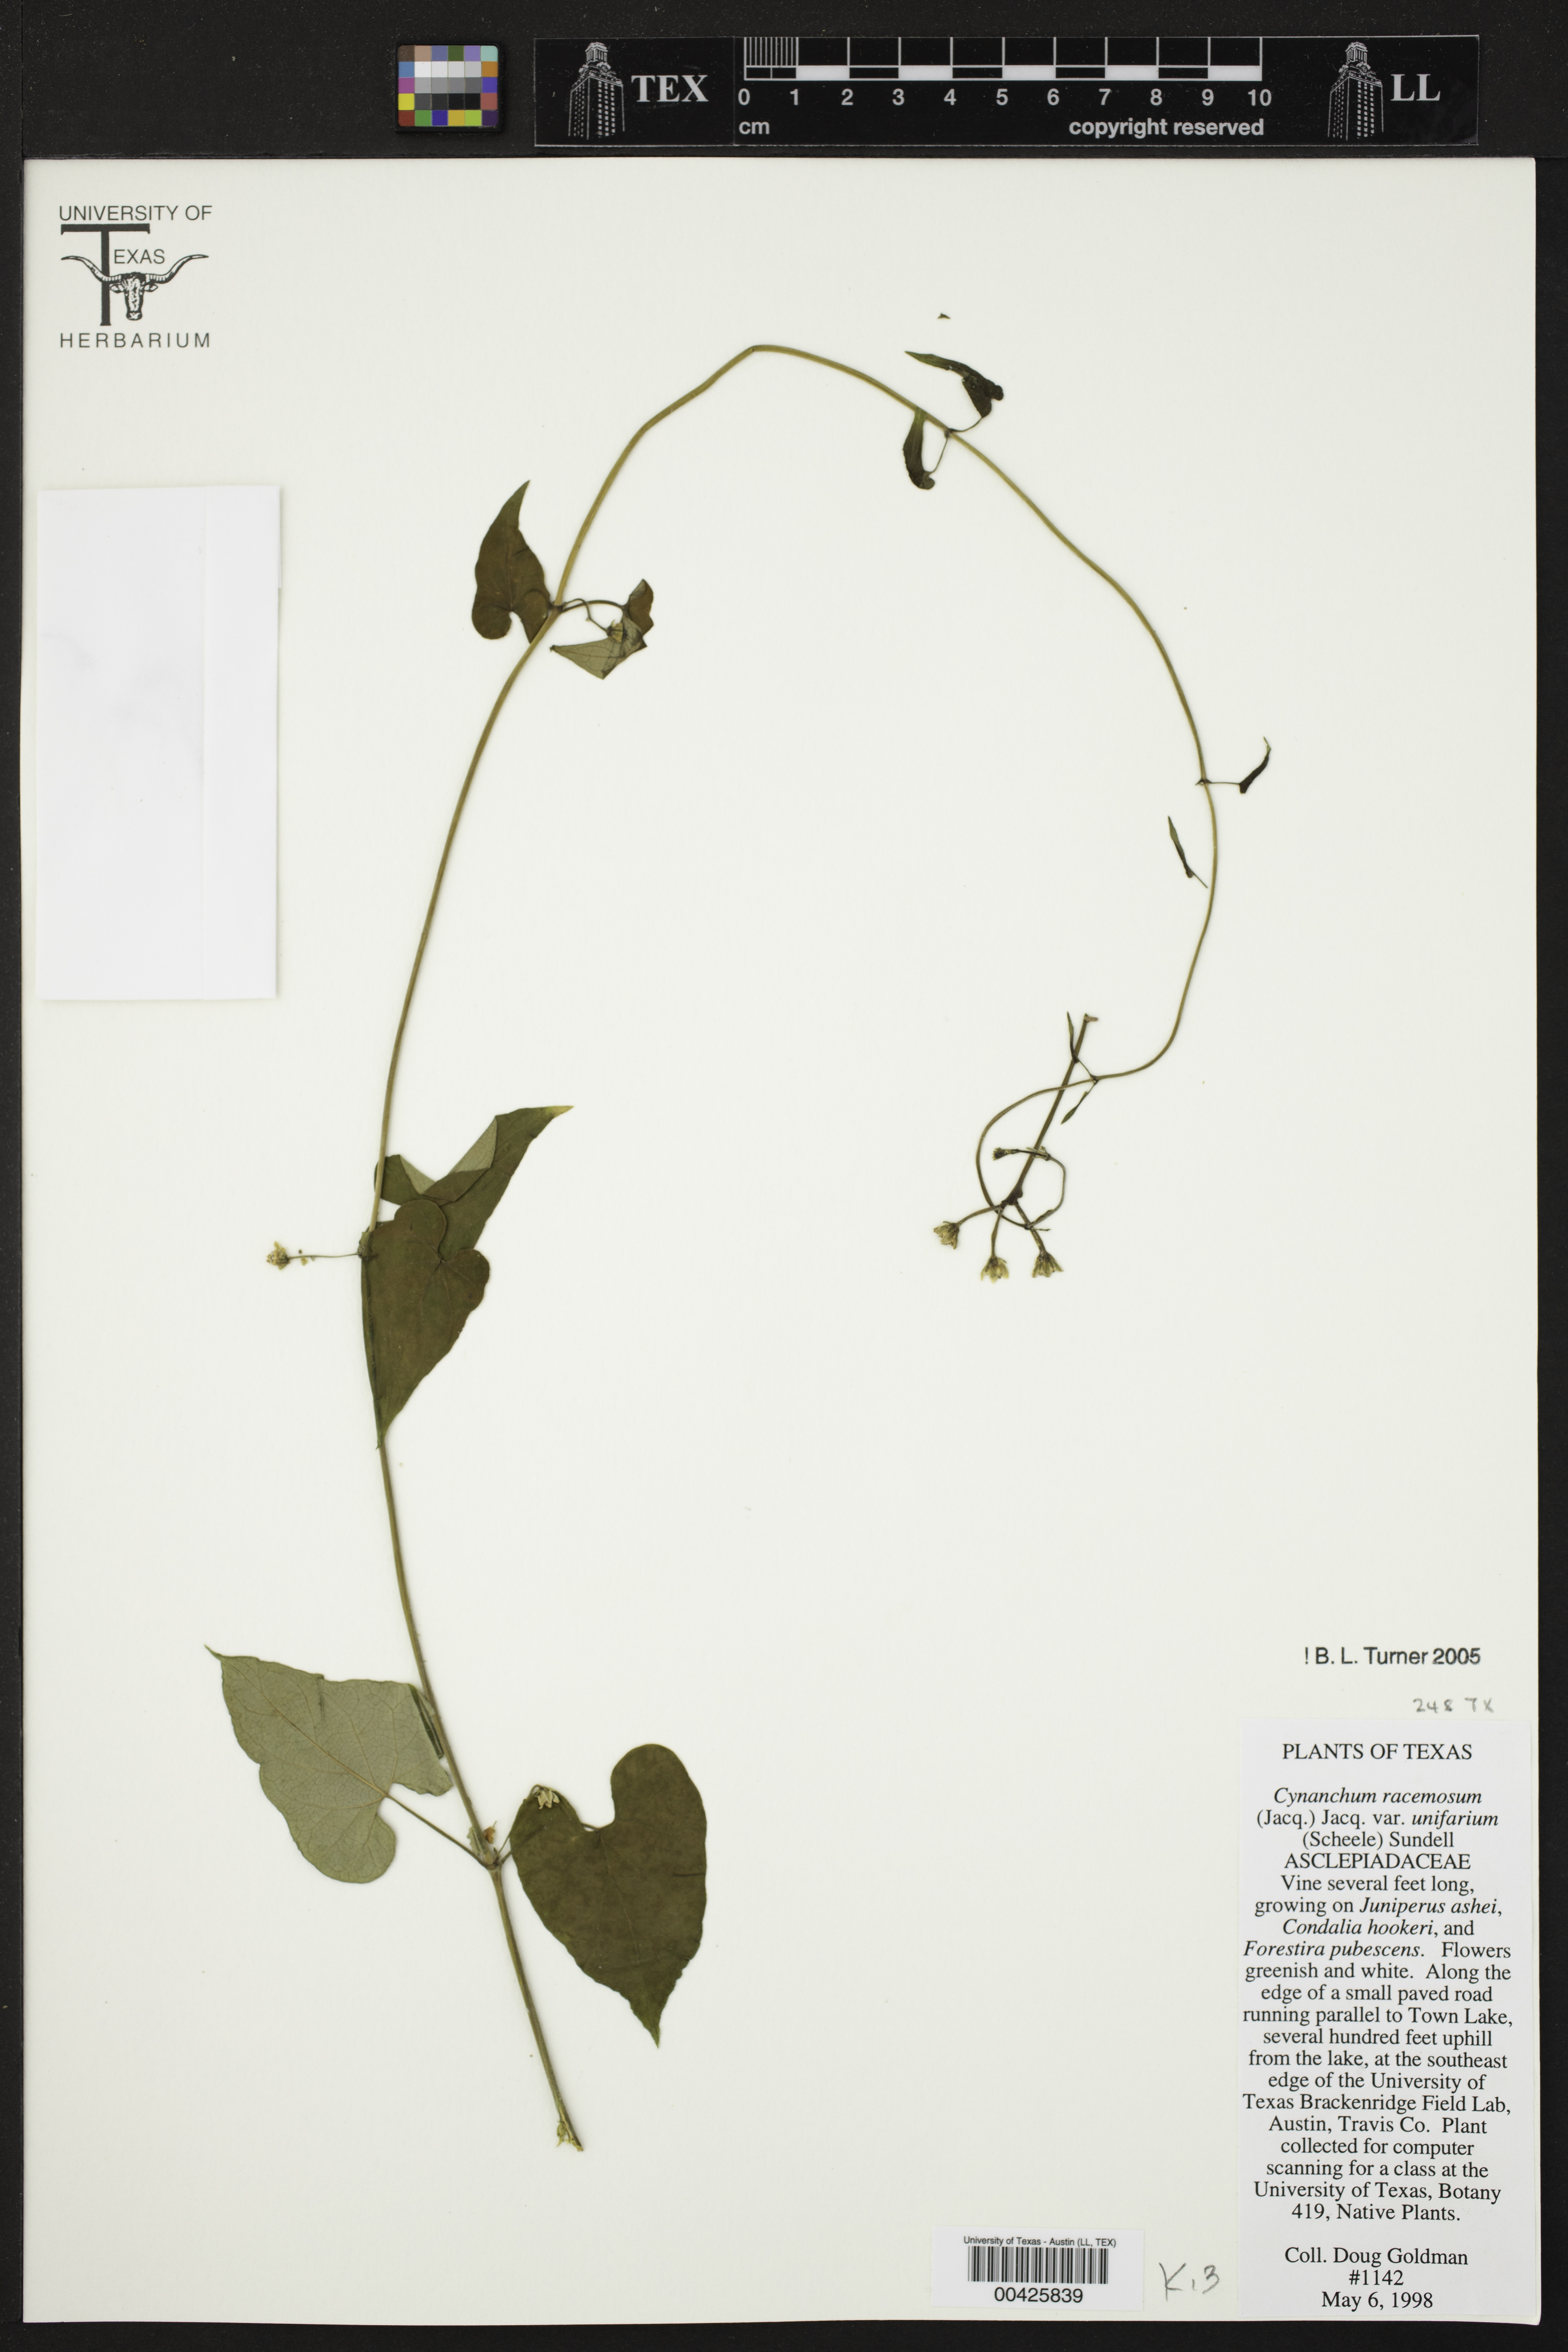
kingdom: Plantae
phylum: Tracheophyta
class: Magnoliopsida
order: Gentianales
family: Apocynaceae
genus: Cynanchum
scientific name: Cynanchum racemosum
